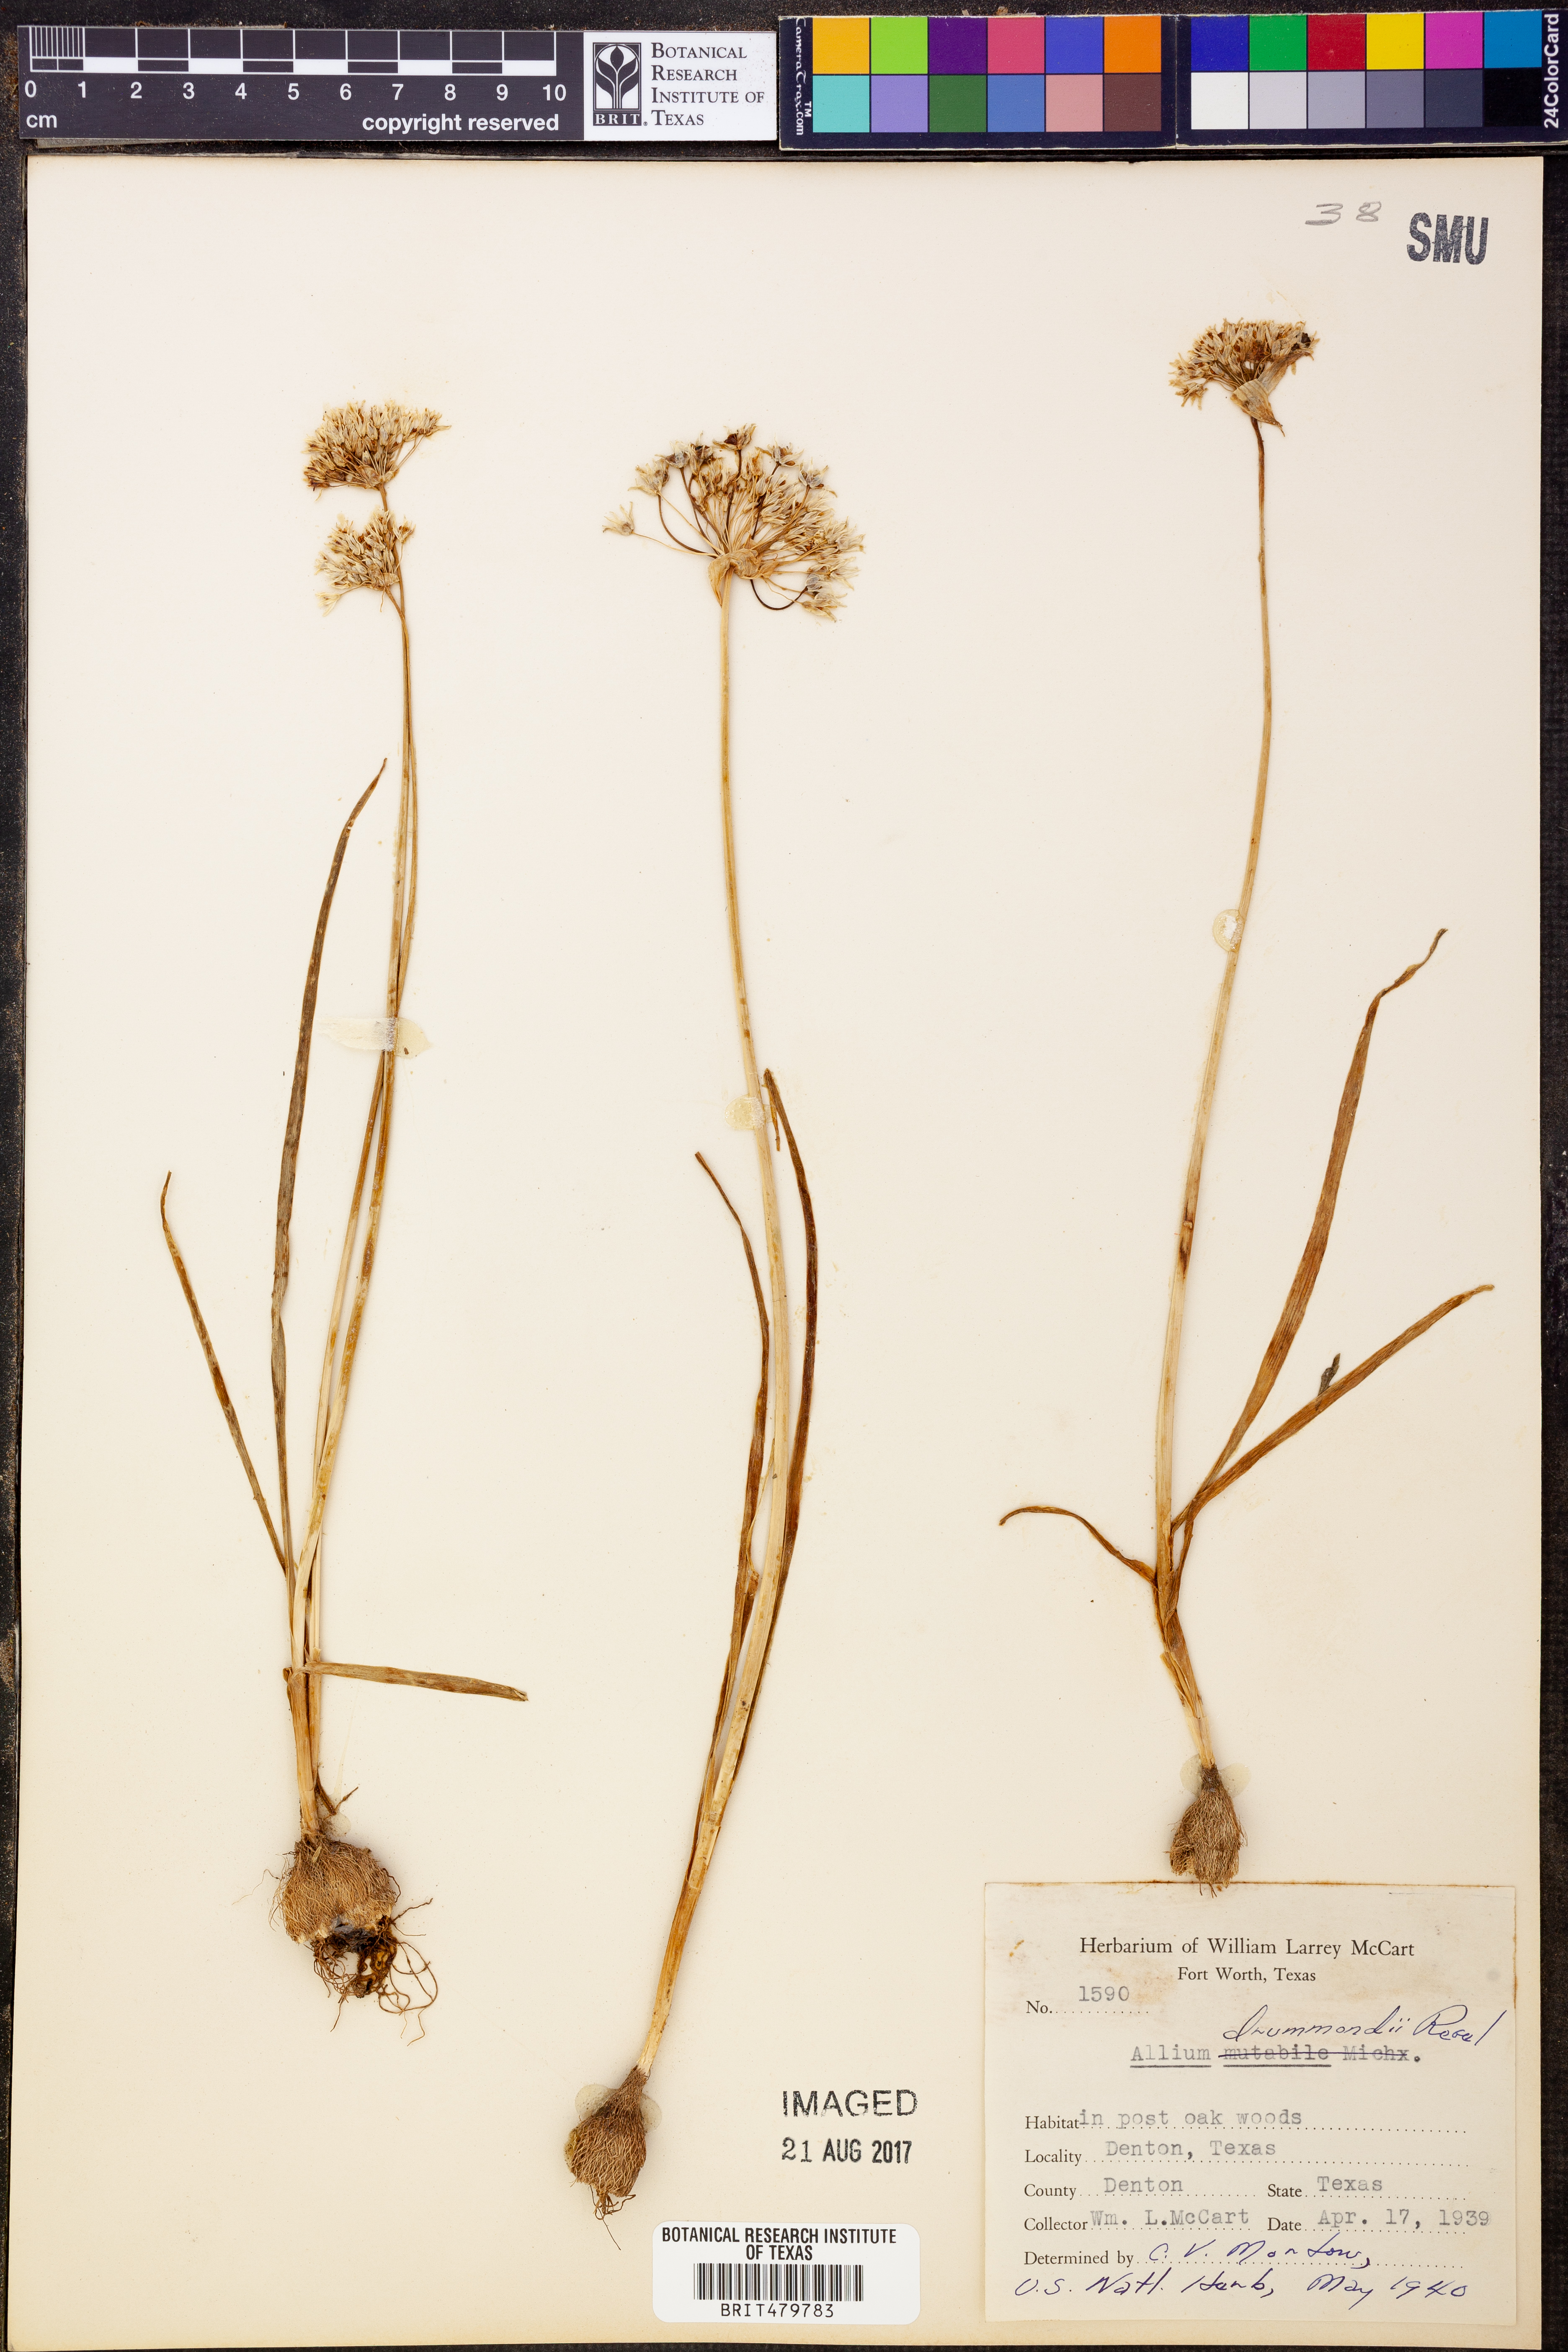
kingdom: Plantae
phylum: Tracheophyta
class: Liliopsida
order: Asparagales
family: Amaryllidaceae
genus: Allium
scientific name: Allium drummondii
